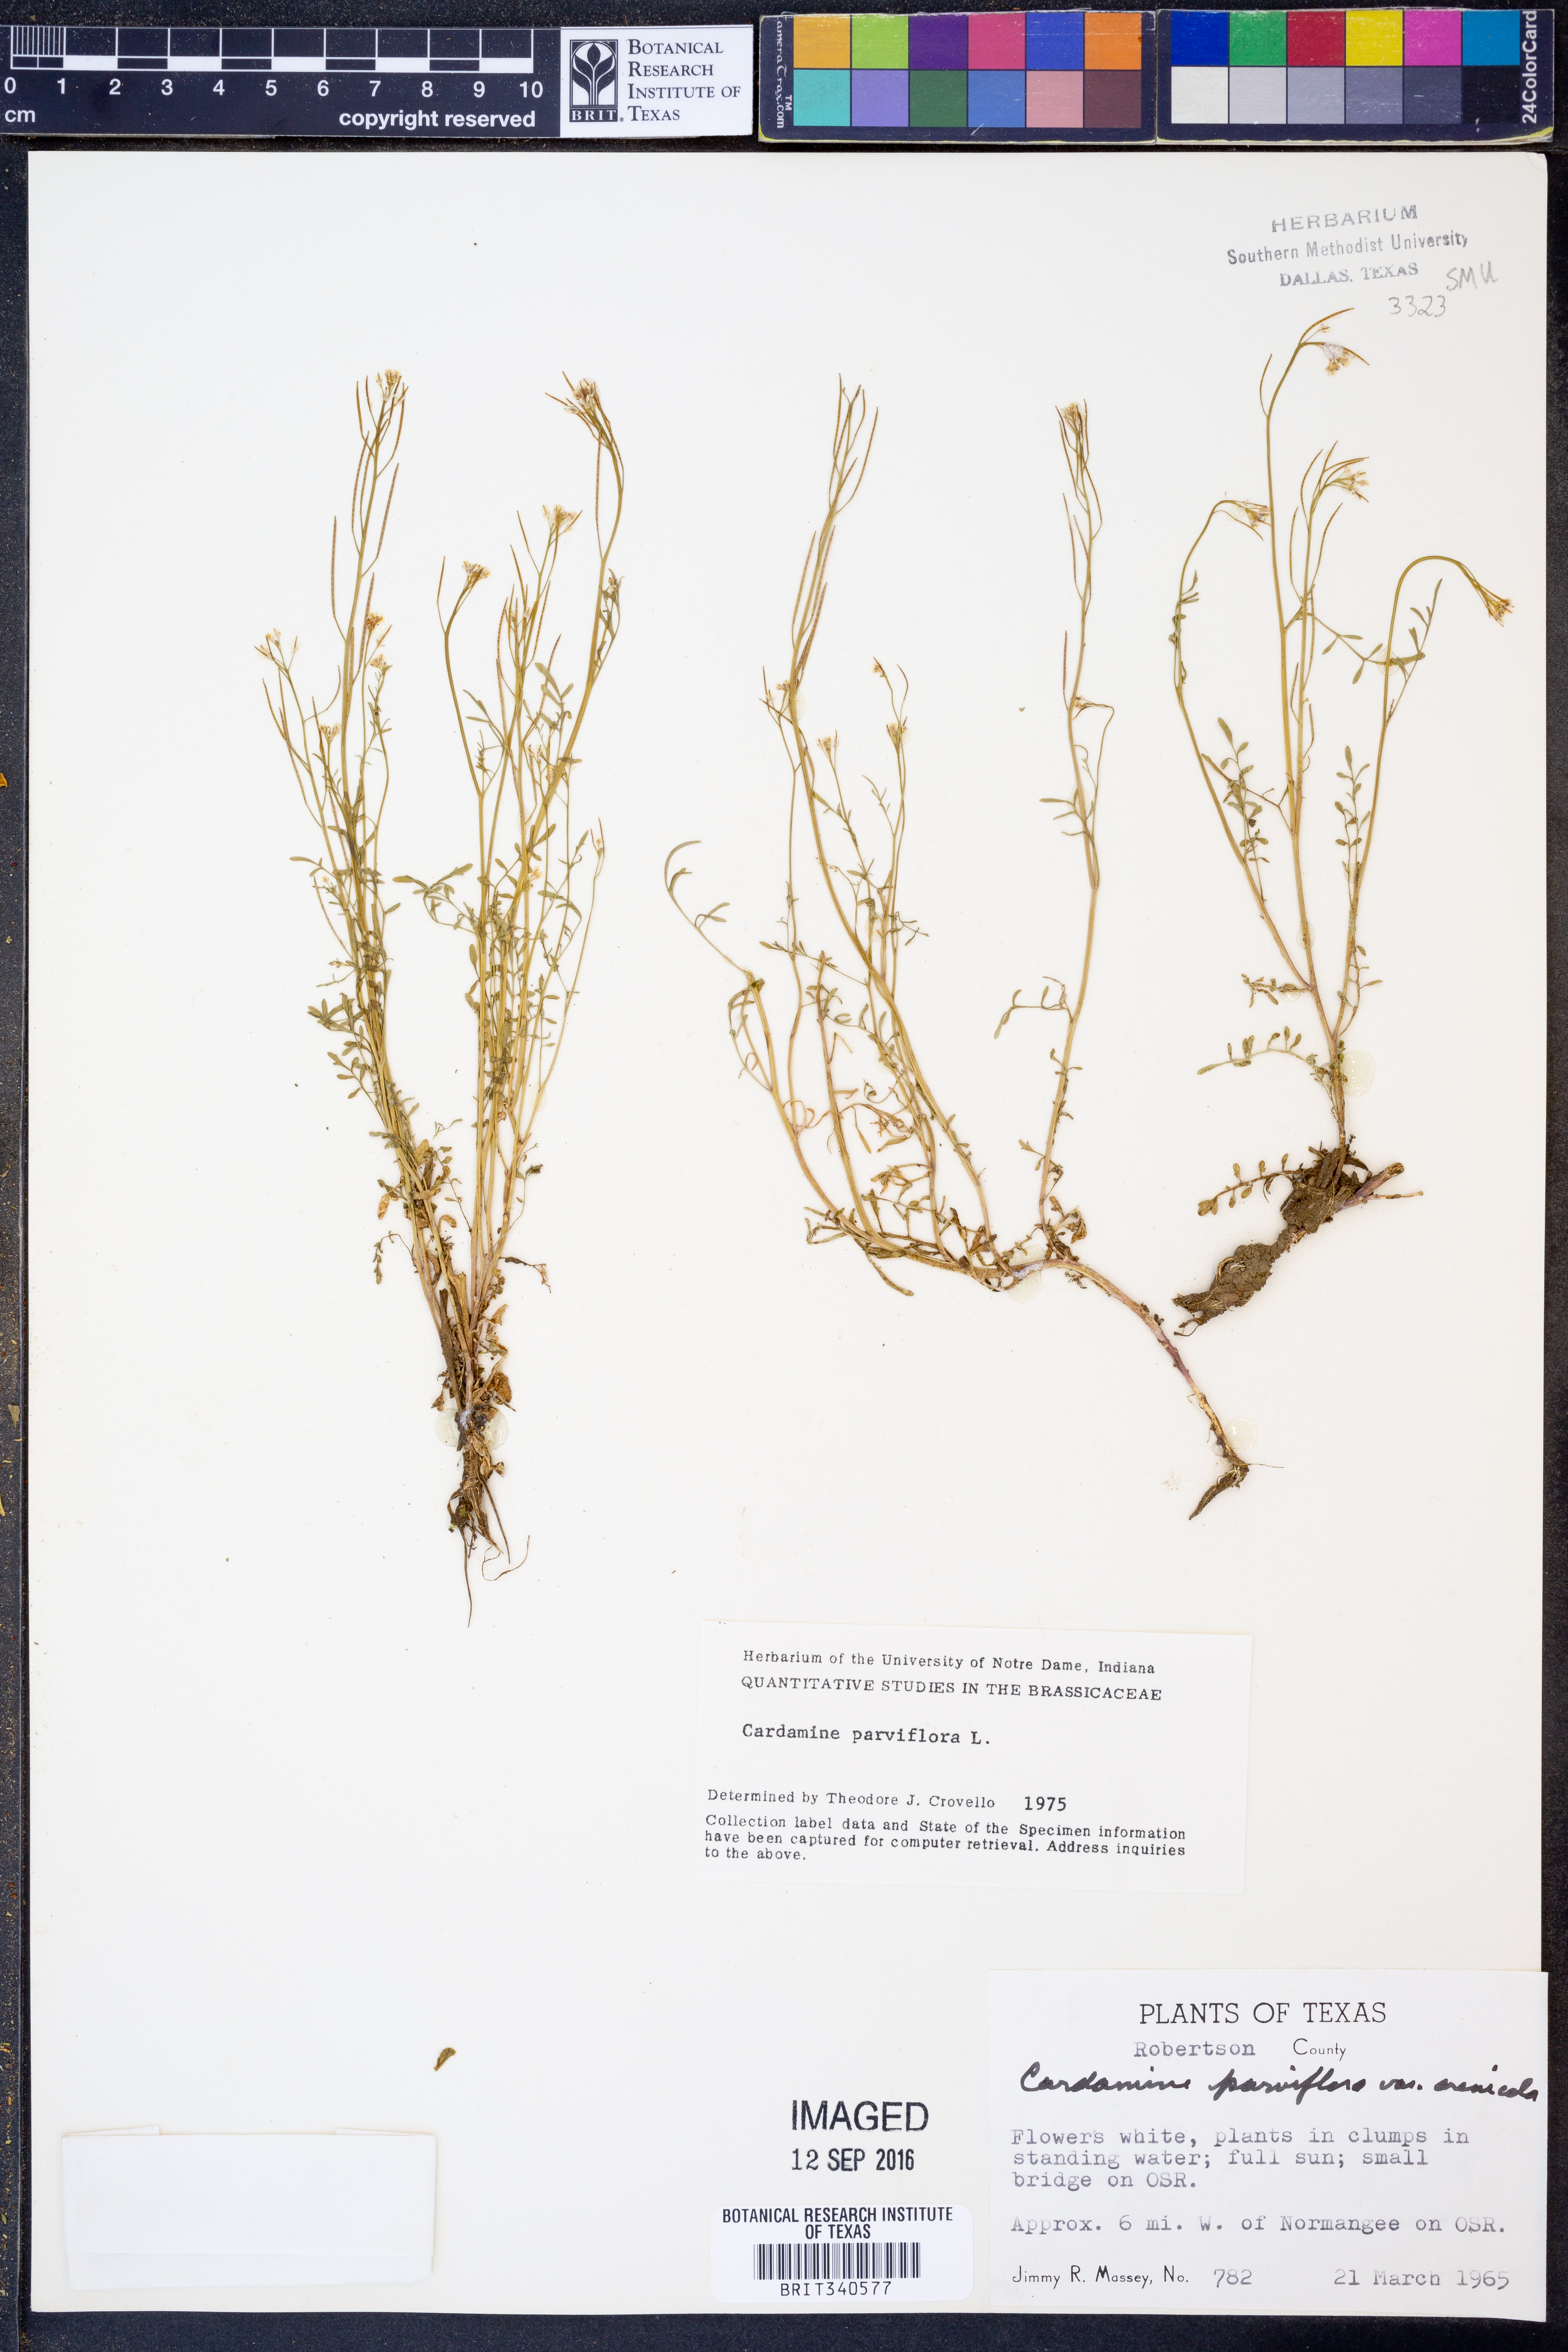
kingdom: Plantae
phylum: Tracheophyta
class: Magnoliopsida
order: Brassicales
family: Brassicaceae
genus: Cardamine
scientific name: Cardamine parviflora
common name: Sand bittercress
